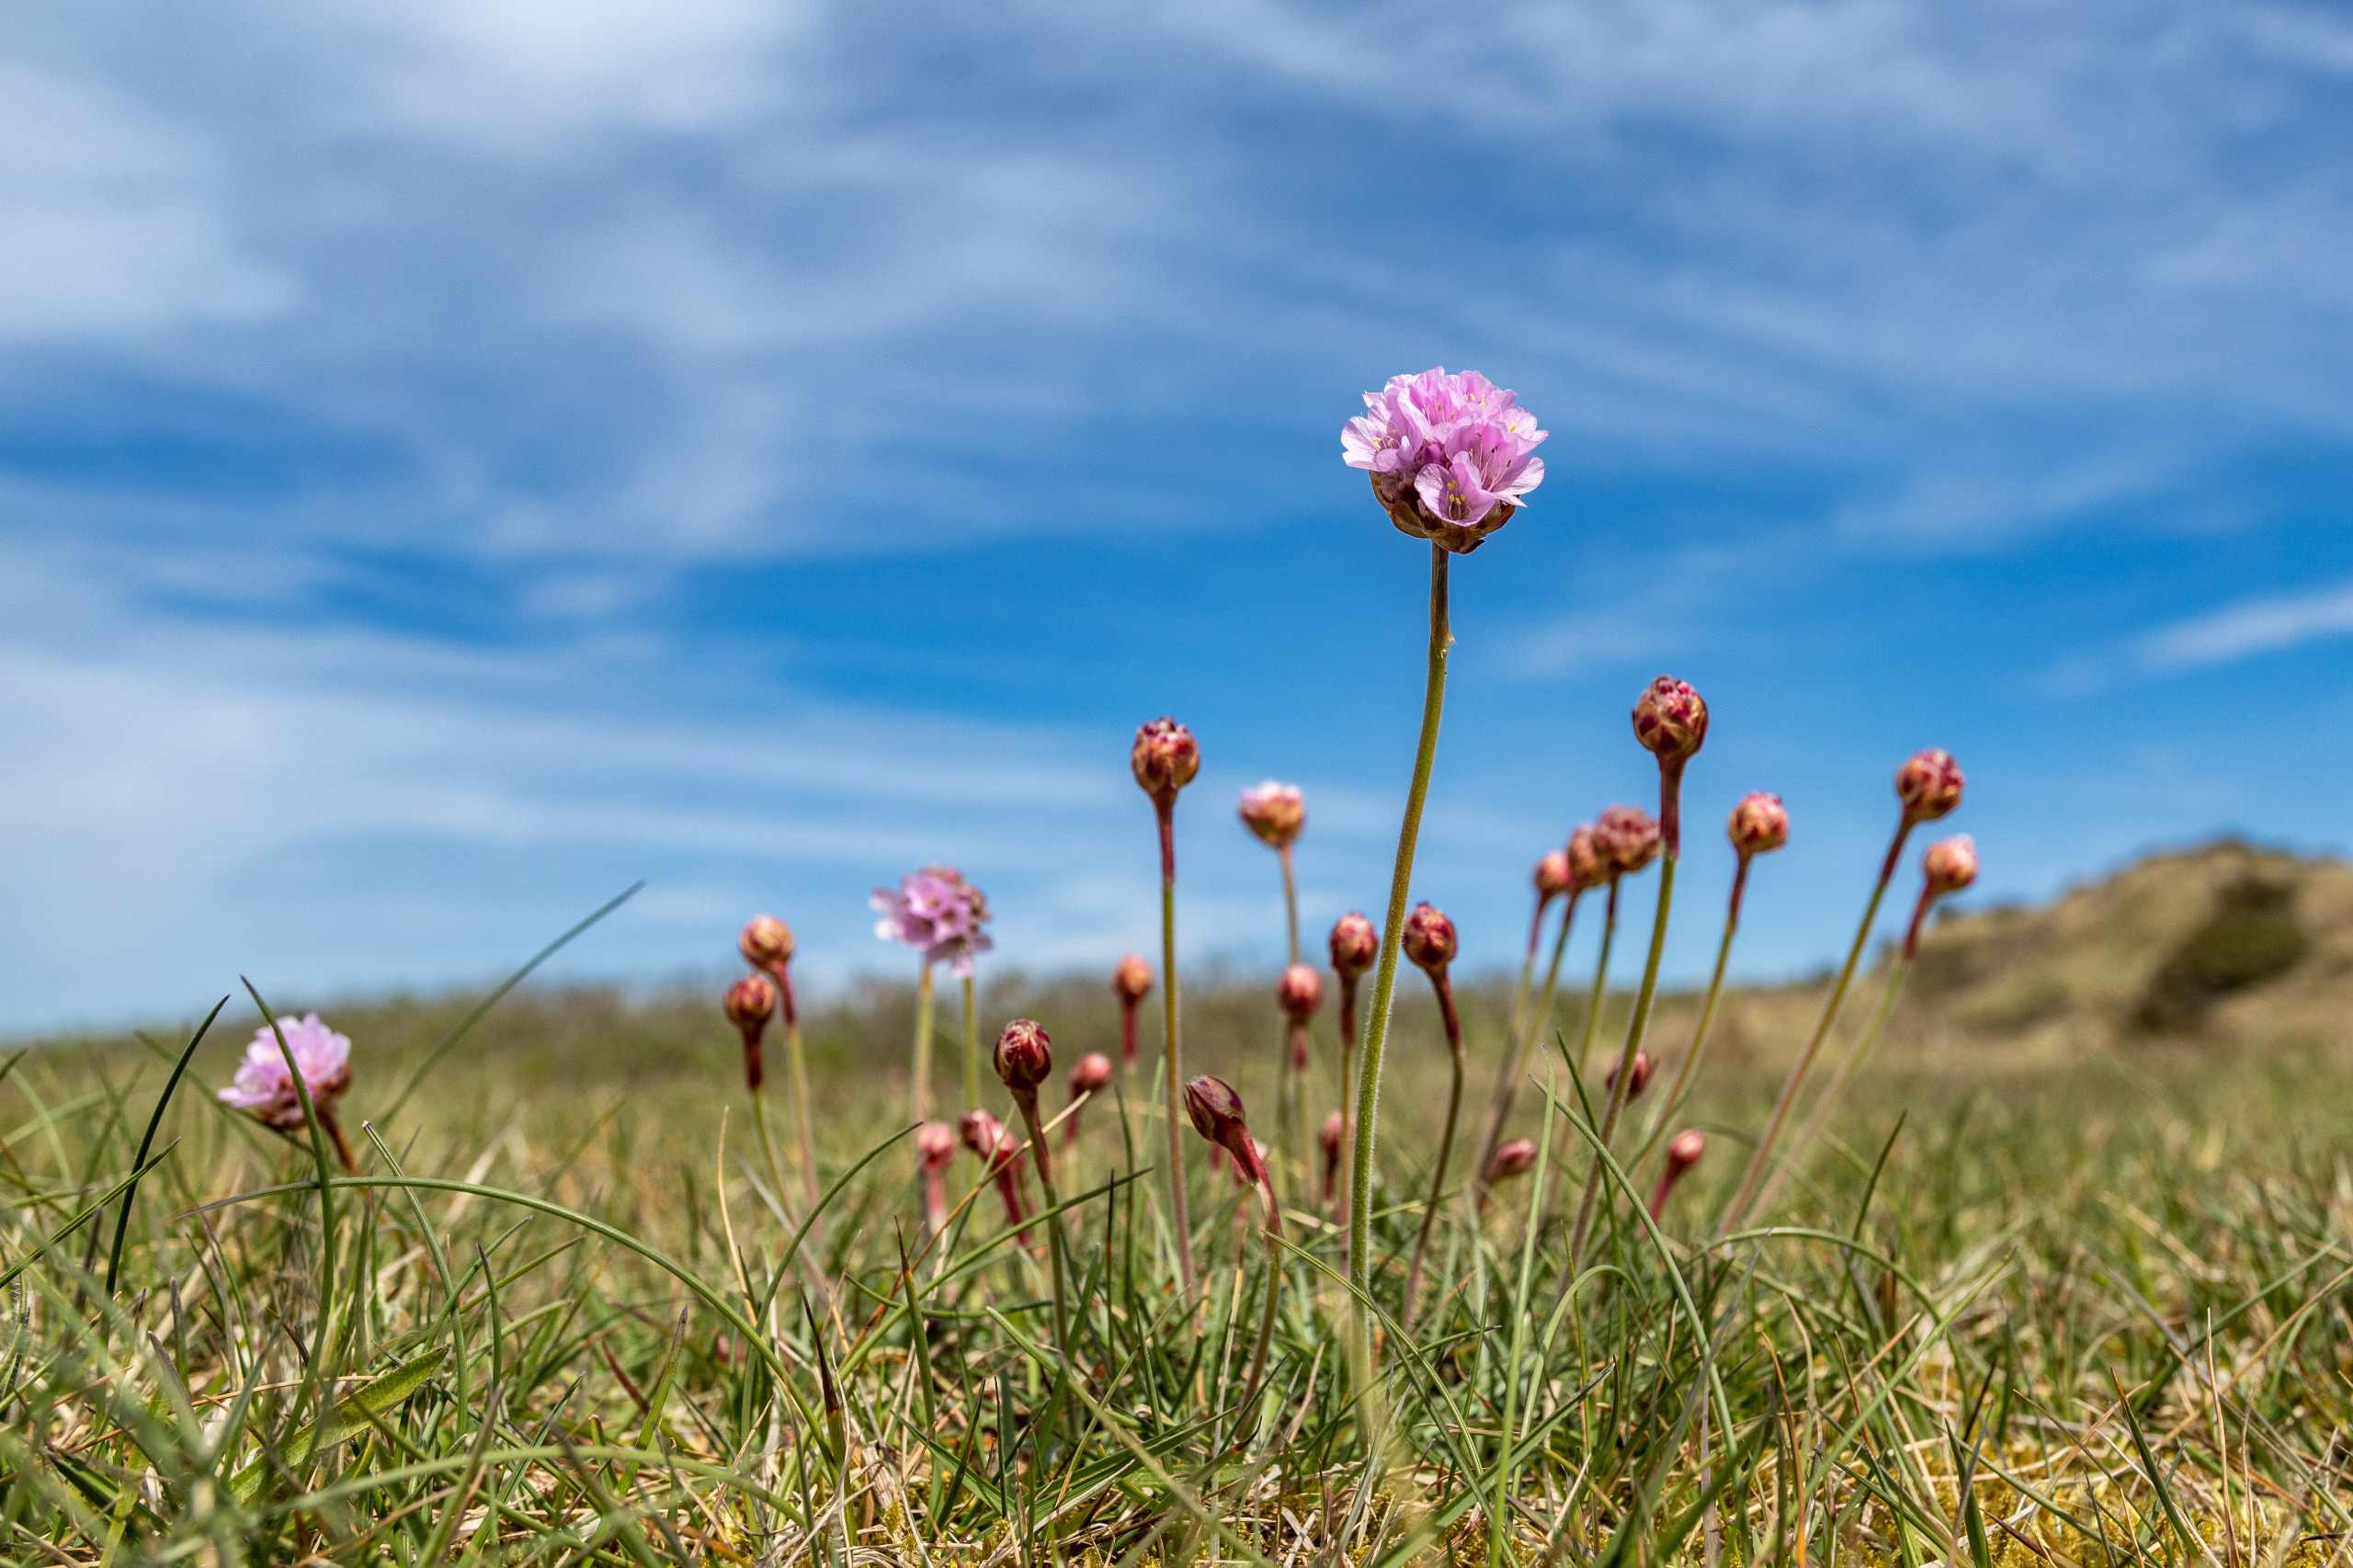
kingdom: Plantae
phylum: Tracheophyta
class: Magnoliopsida
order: Caryophyllales
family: Plumbaginaceae
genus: Armeria
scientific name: Armeria maritima
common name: Engelskgræs
